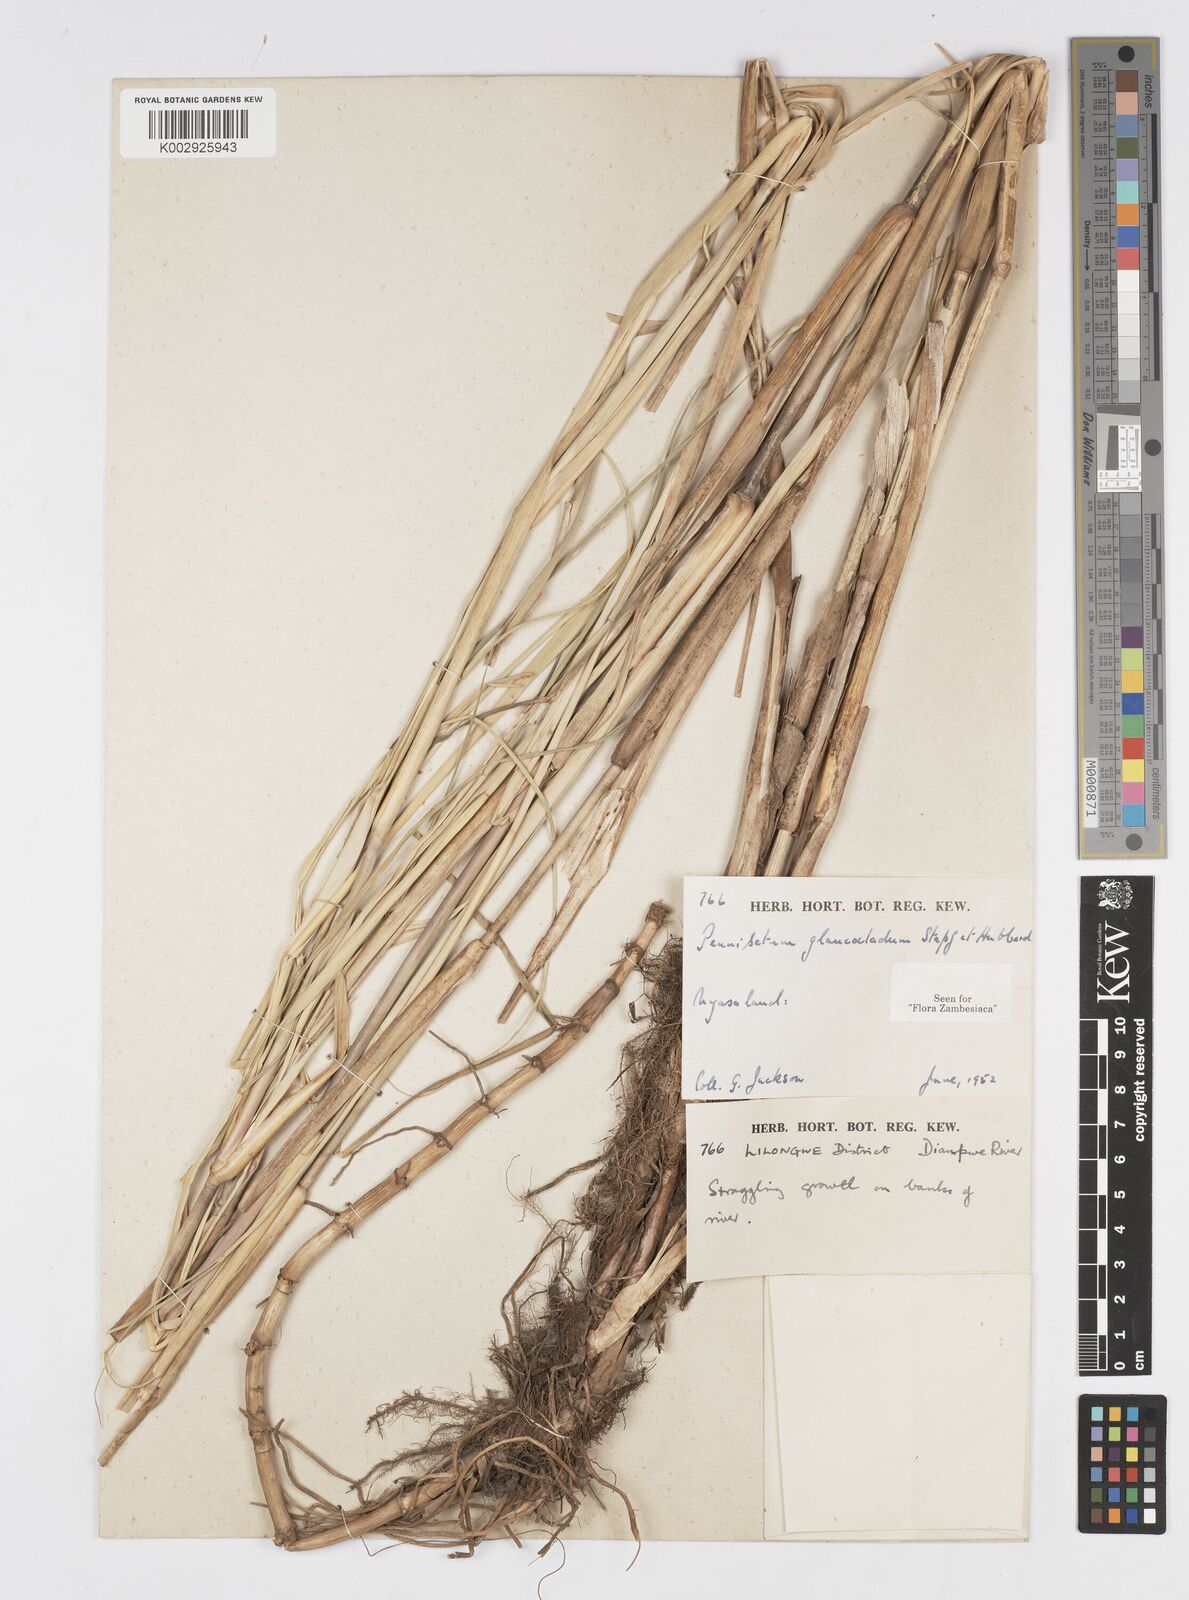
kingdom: Plantae
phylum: Tracheophyta
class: Liliopsida
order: Poales
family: Poaceae
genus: Cenchrus
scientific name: Cenchrus caudatus
